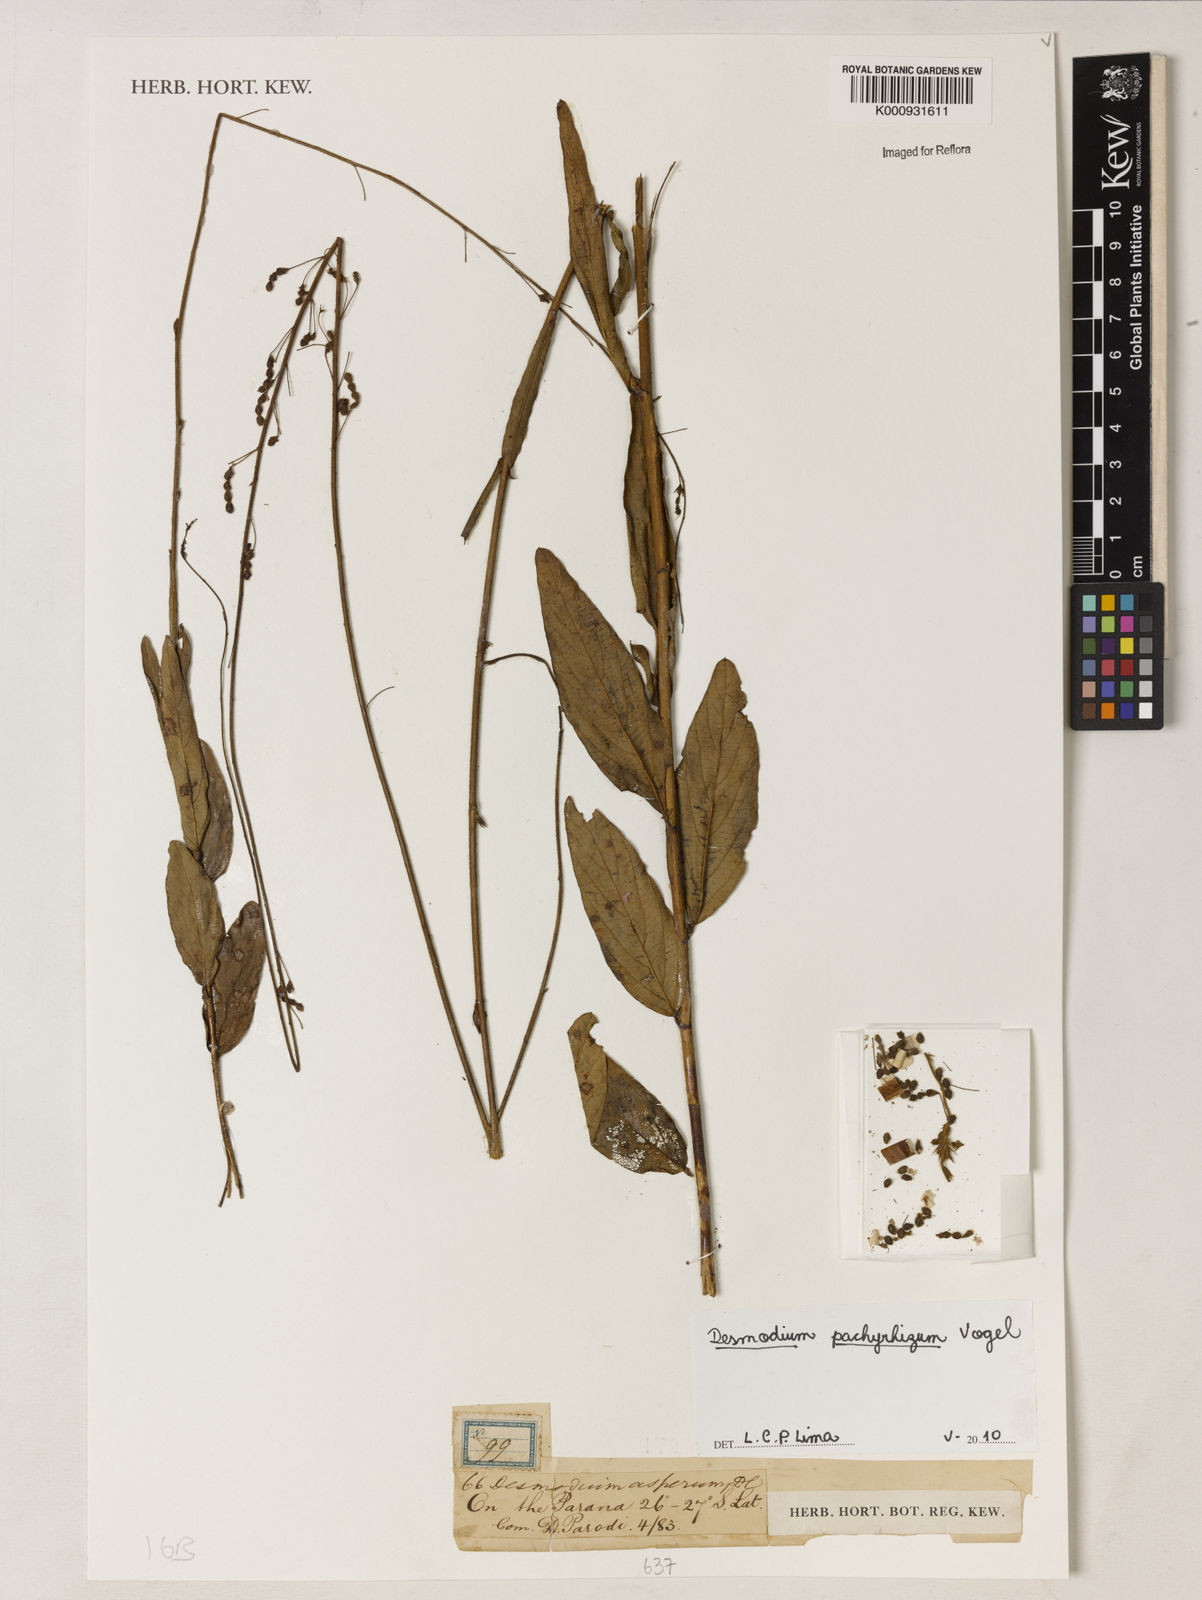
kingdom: Plantae
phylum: Tracheophyta
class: Magnoliopsida
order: Fabales
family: Fabaceae
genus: Desmodium
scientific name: Desmodium pachyrhizum
